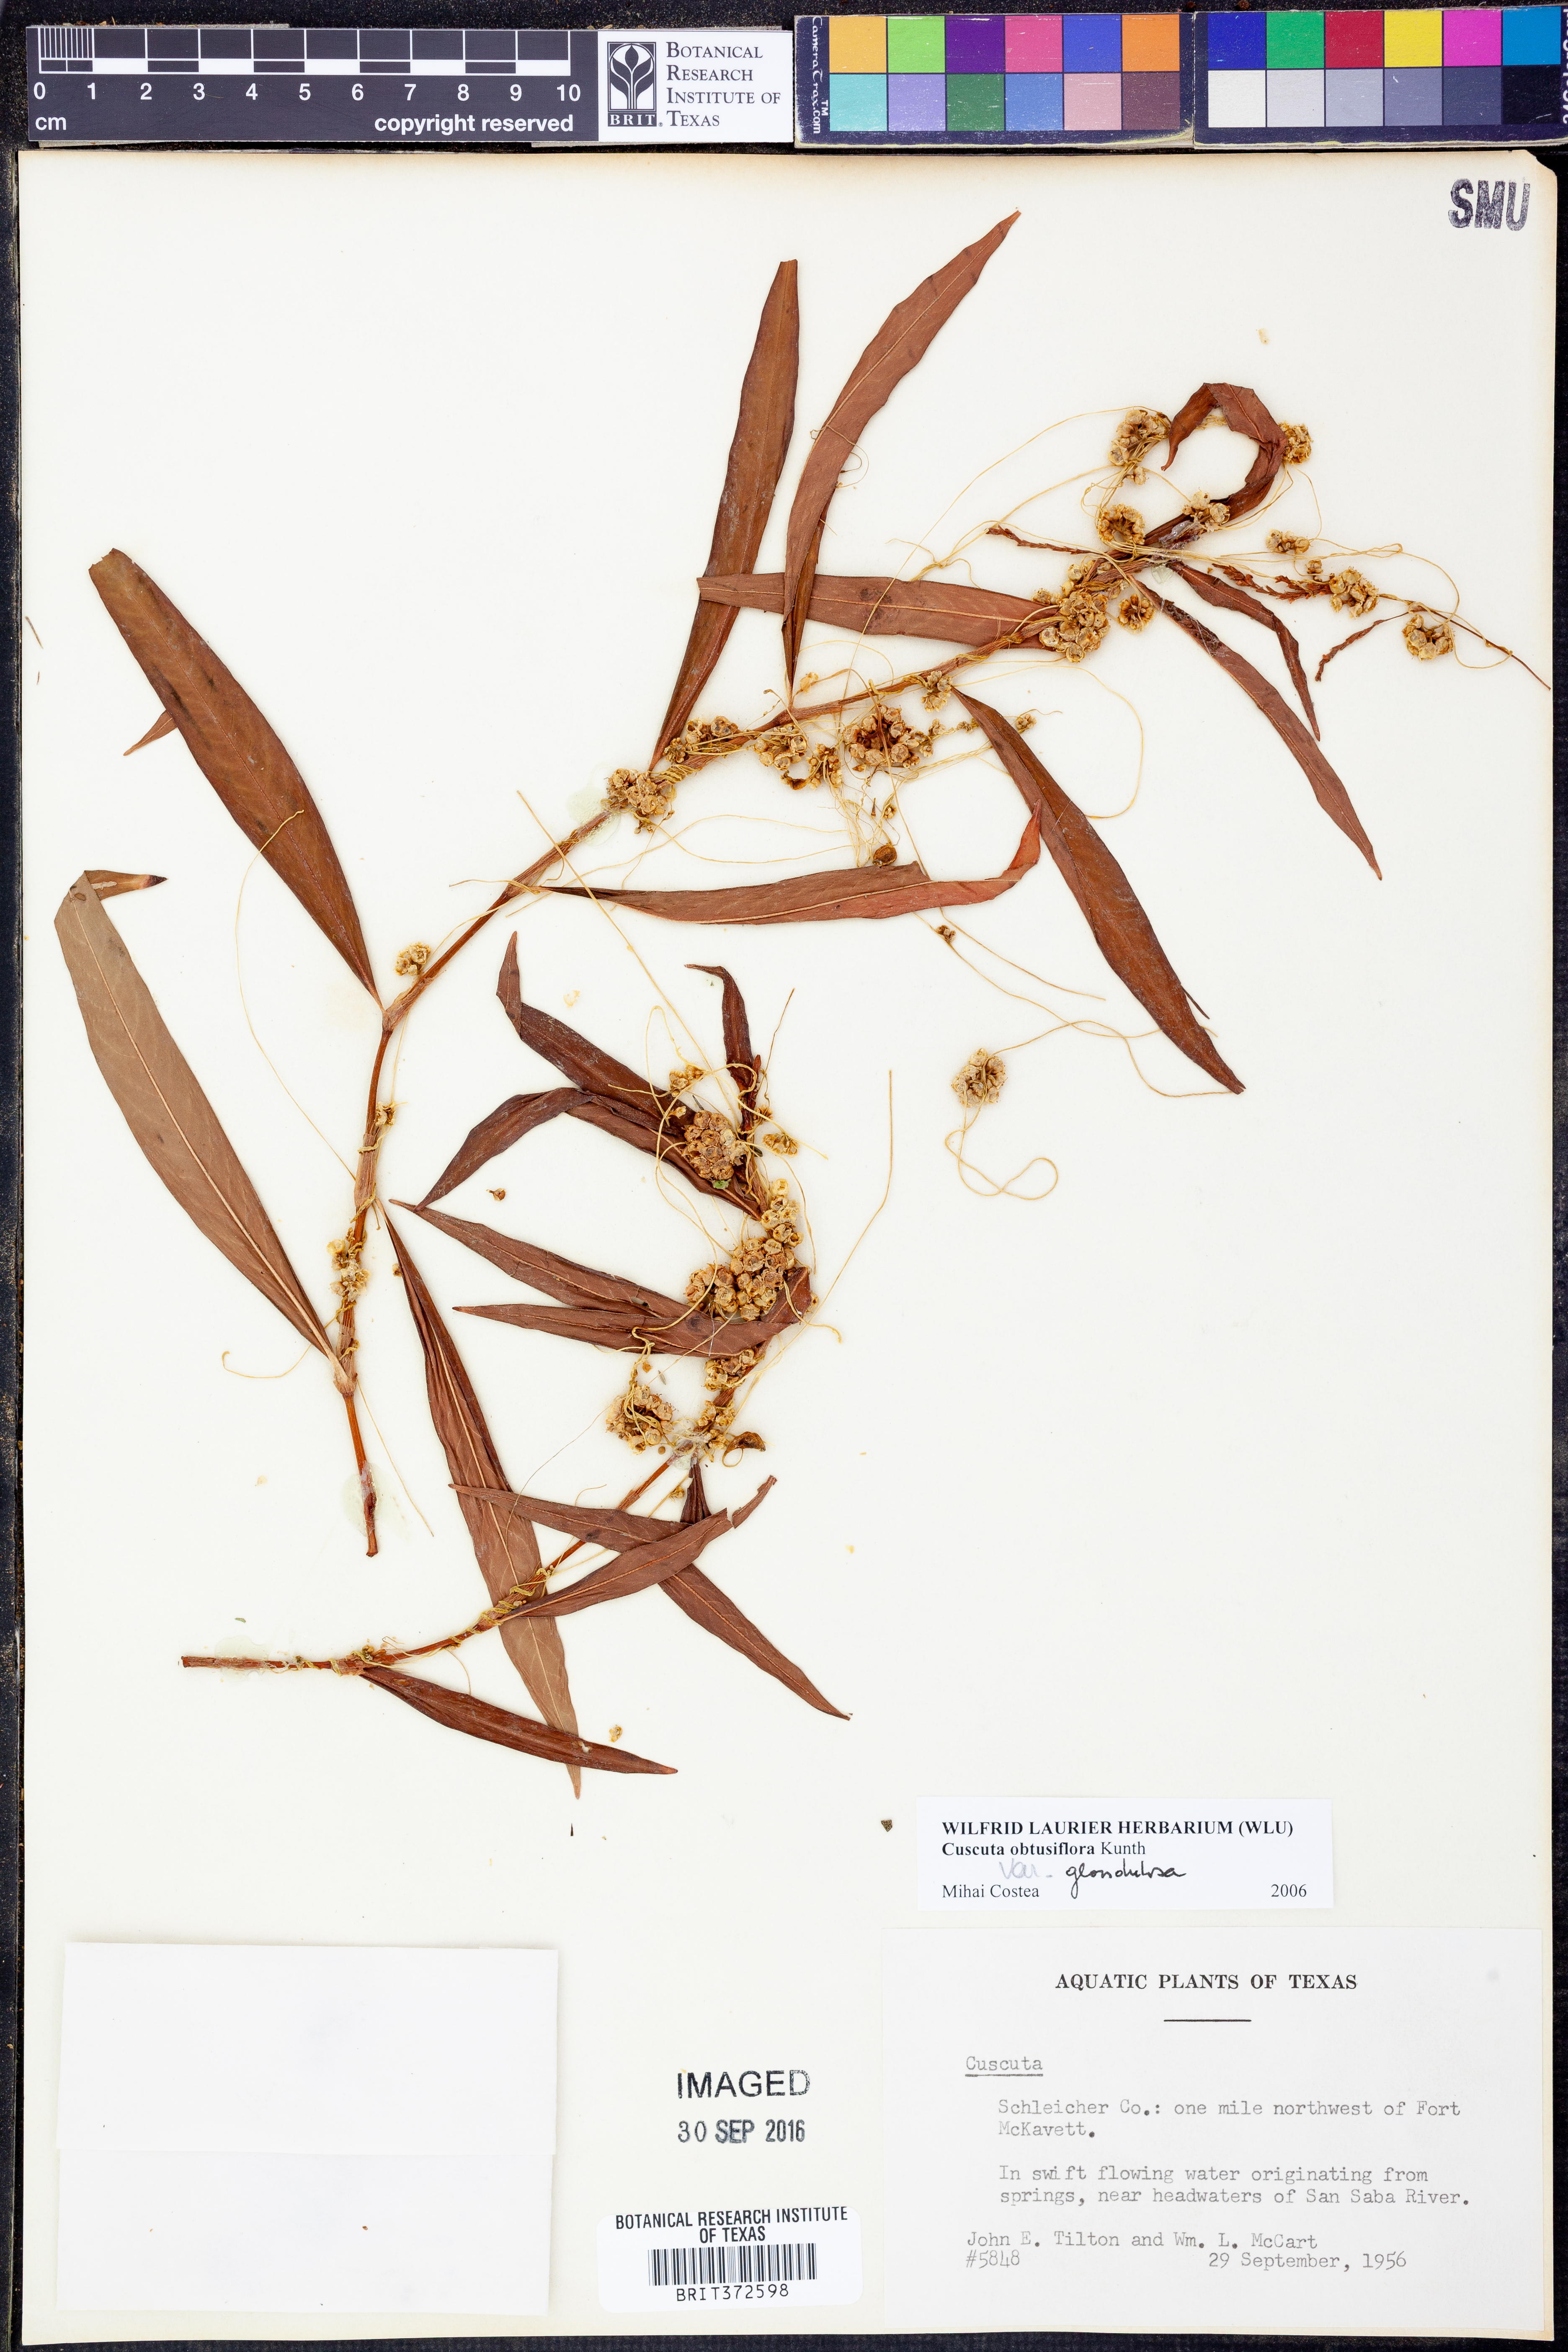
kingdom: Plantae
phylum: Tracheophyta
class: Magnoliopsida
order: Solanales
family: Convolvulaceae
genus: Cuscuta
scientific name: Cuscuta obtusiflora
